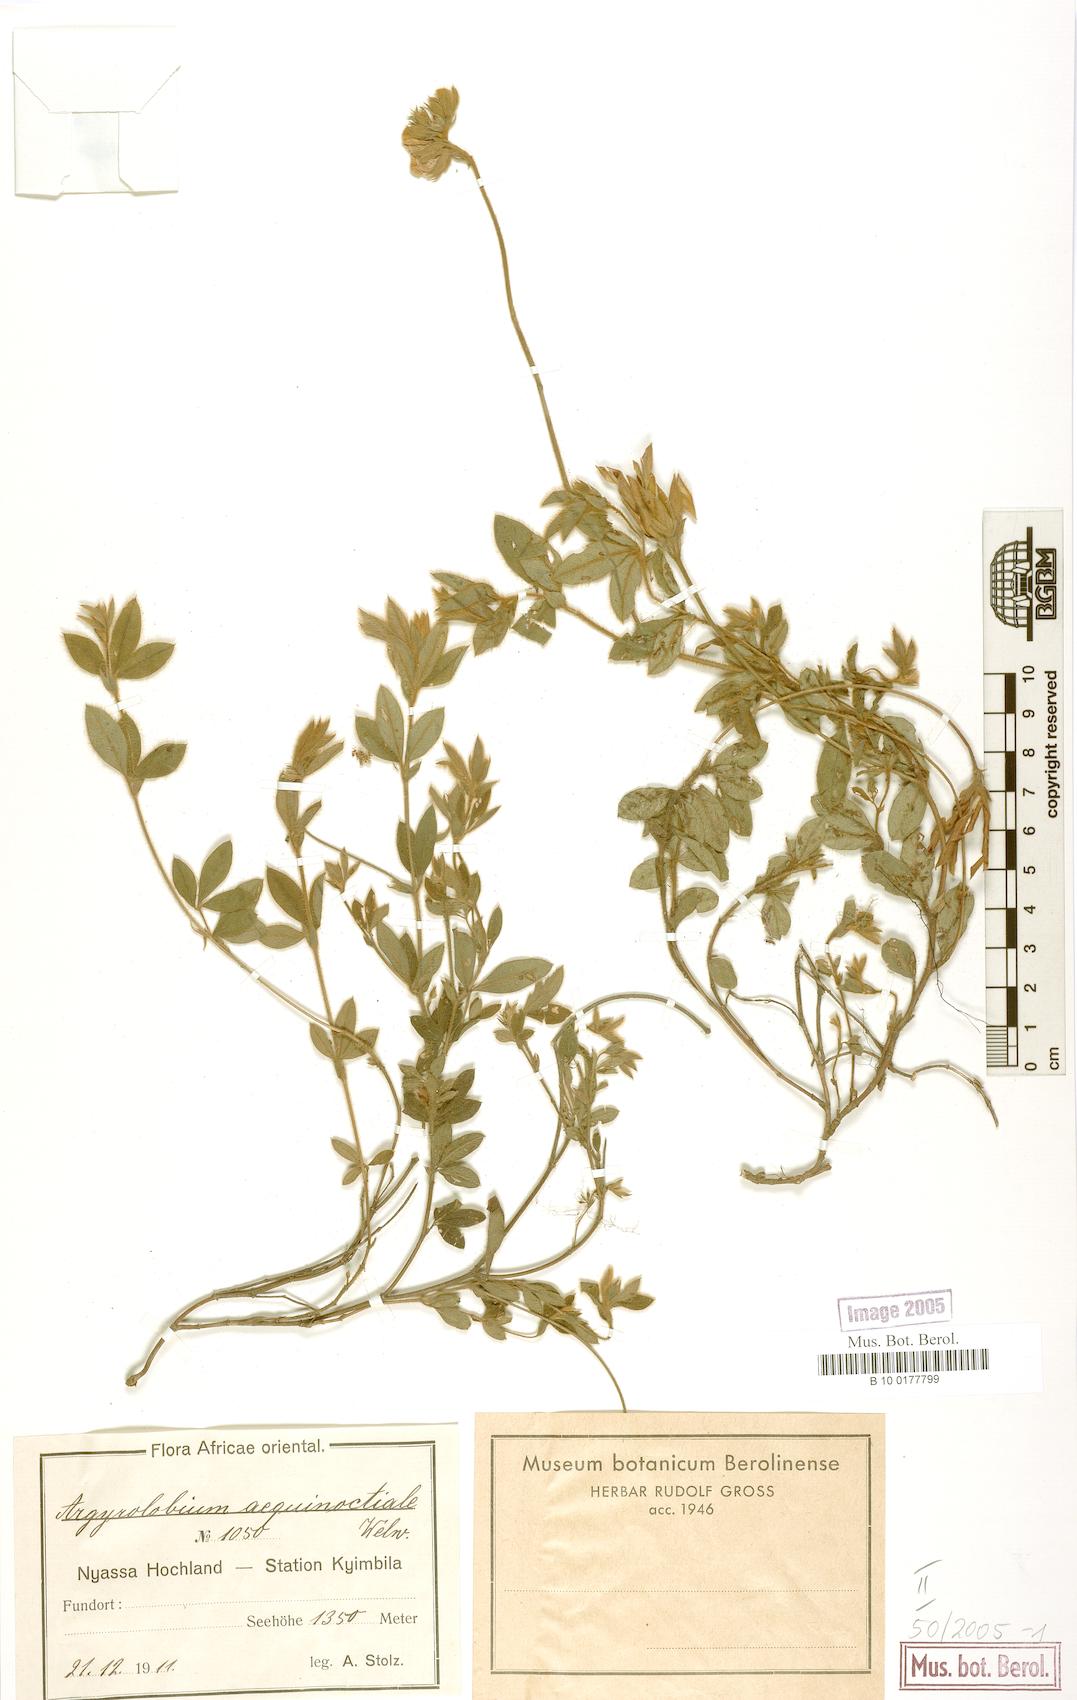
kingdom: Plantae
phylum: Tracheophyta
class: Magnoliopsida
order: Fabales
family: Fabaceae
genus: Argyrolobium
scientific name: Argyrolobium aequinoctiale
